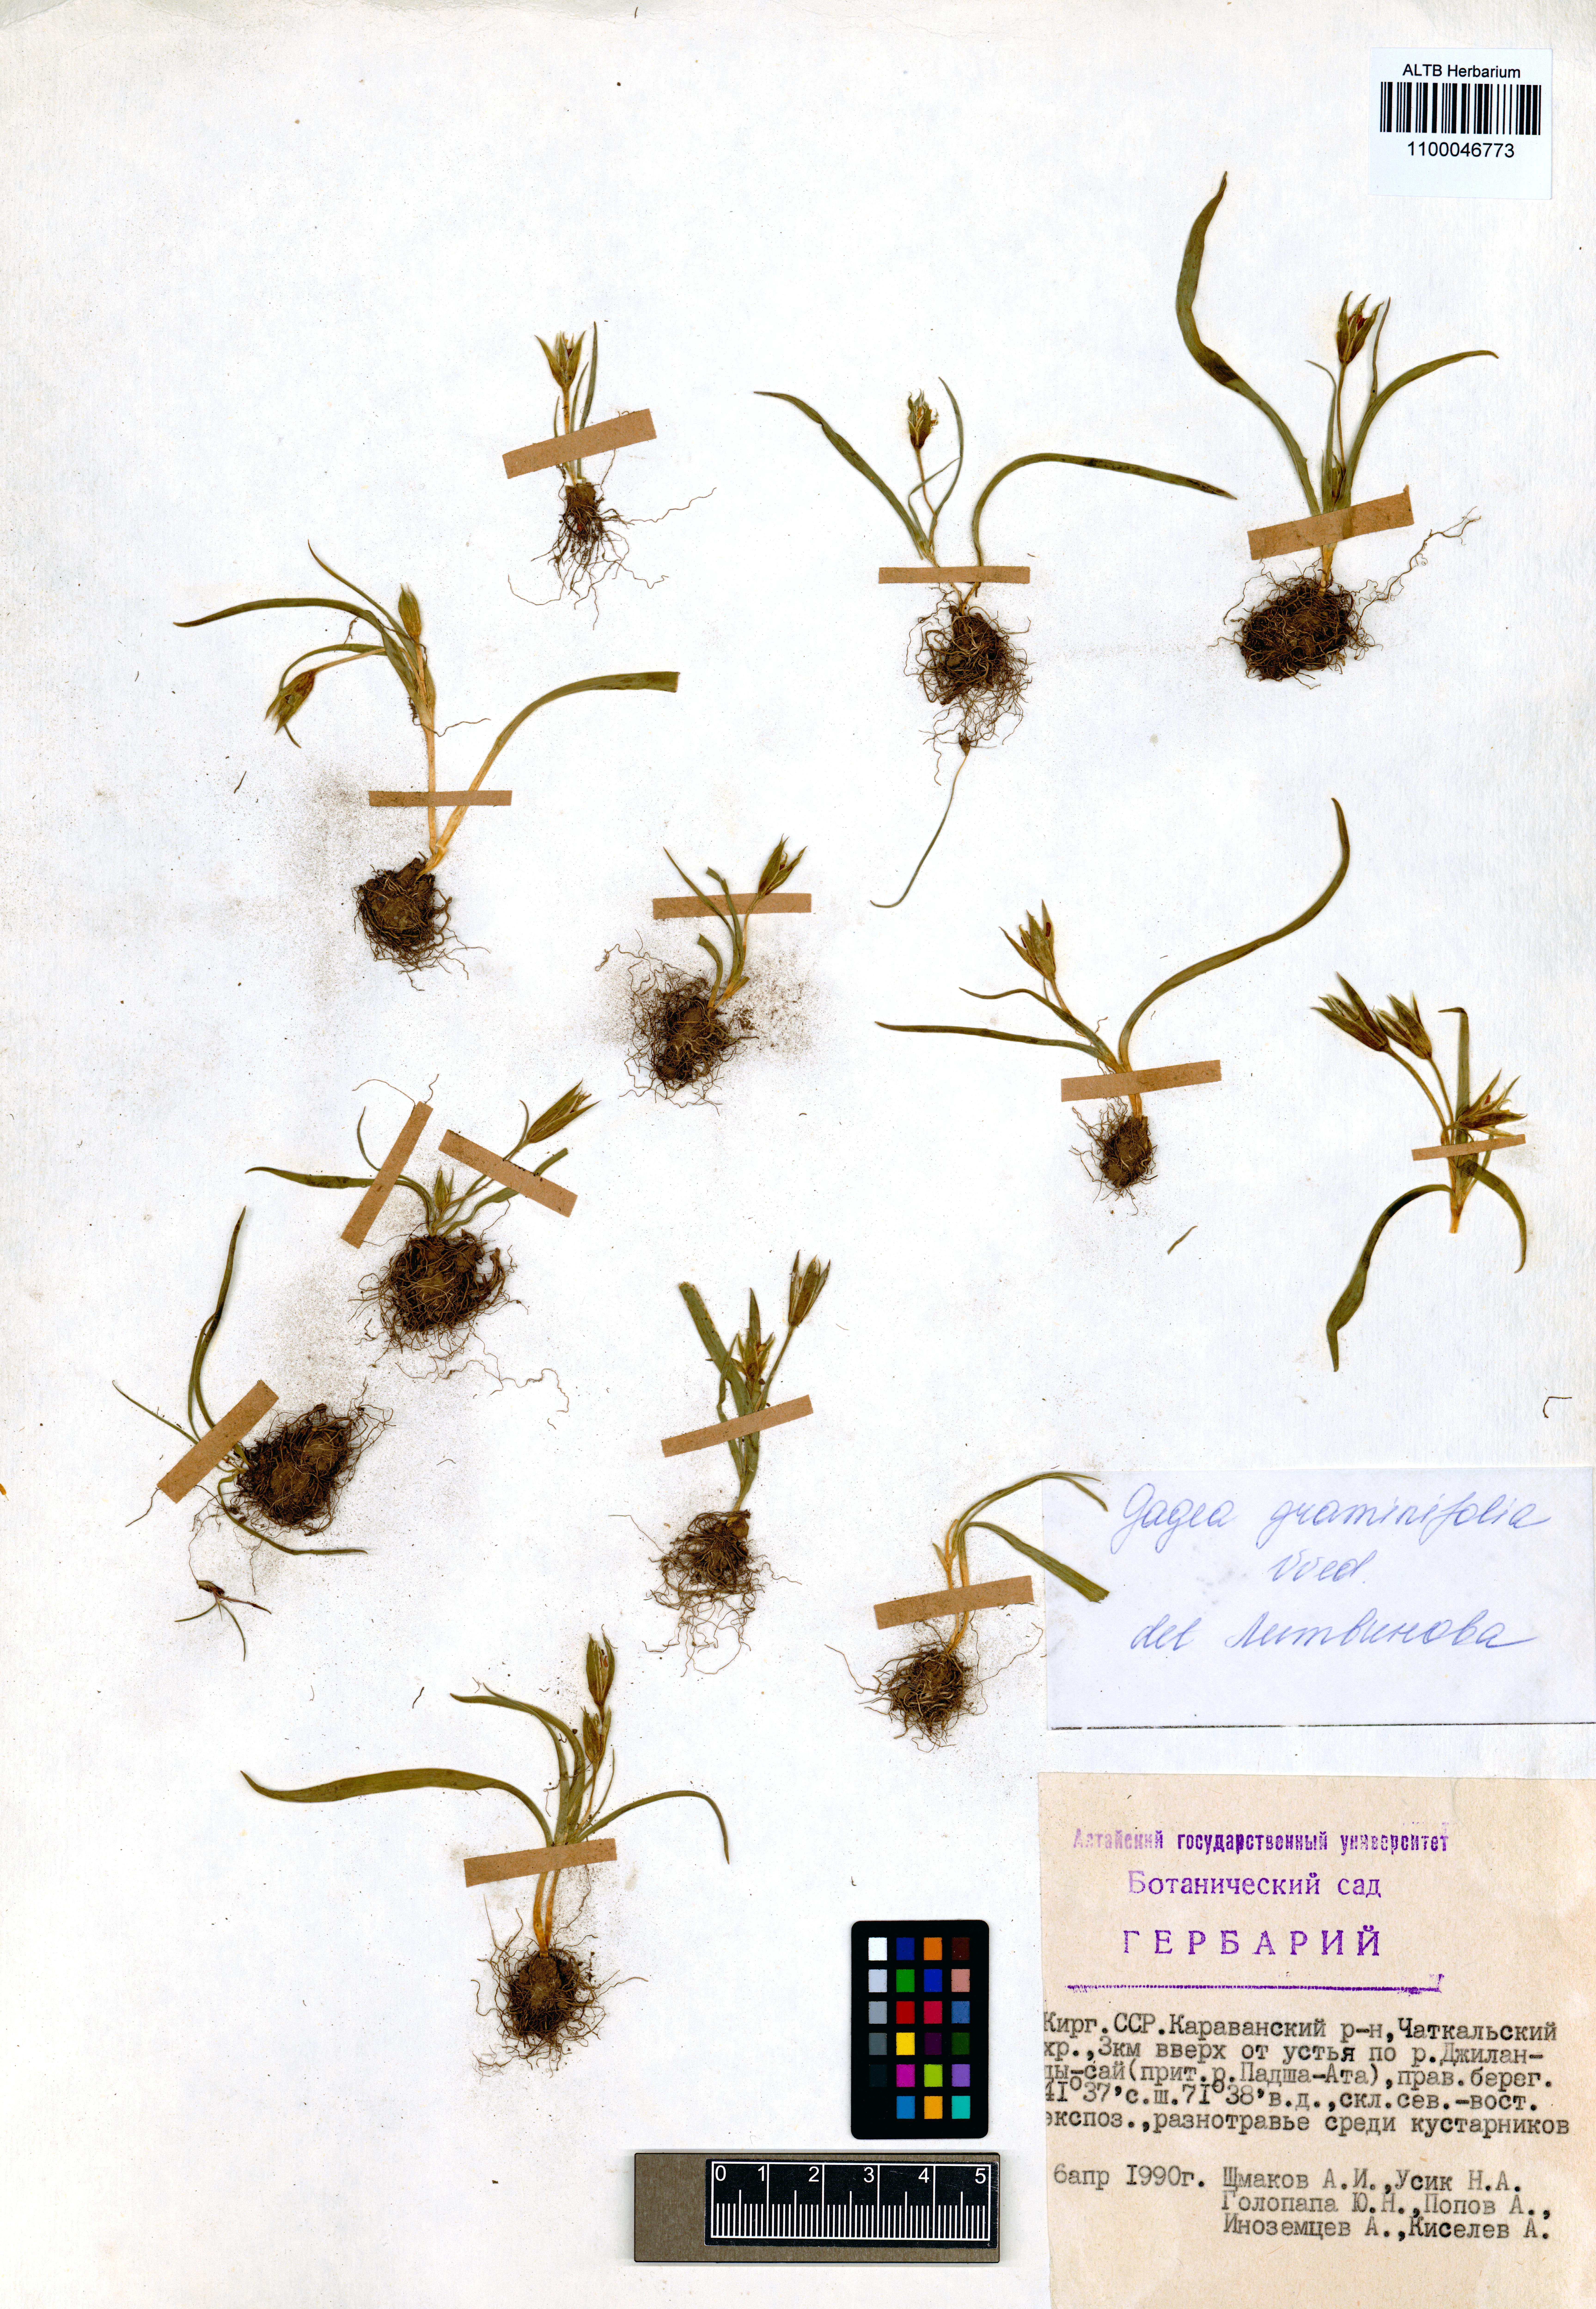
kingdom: Plantae
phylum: Tracheophyta
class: Liliopsida
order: Liliales
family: Liliaceae
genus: Gagea
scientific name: Gagea graminifolia
